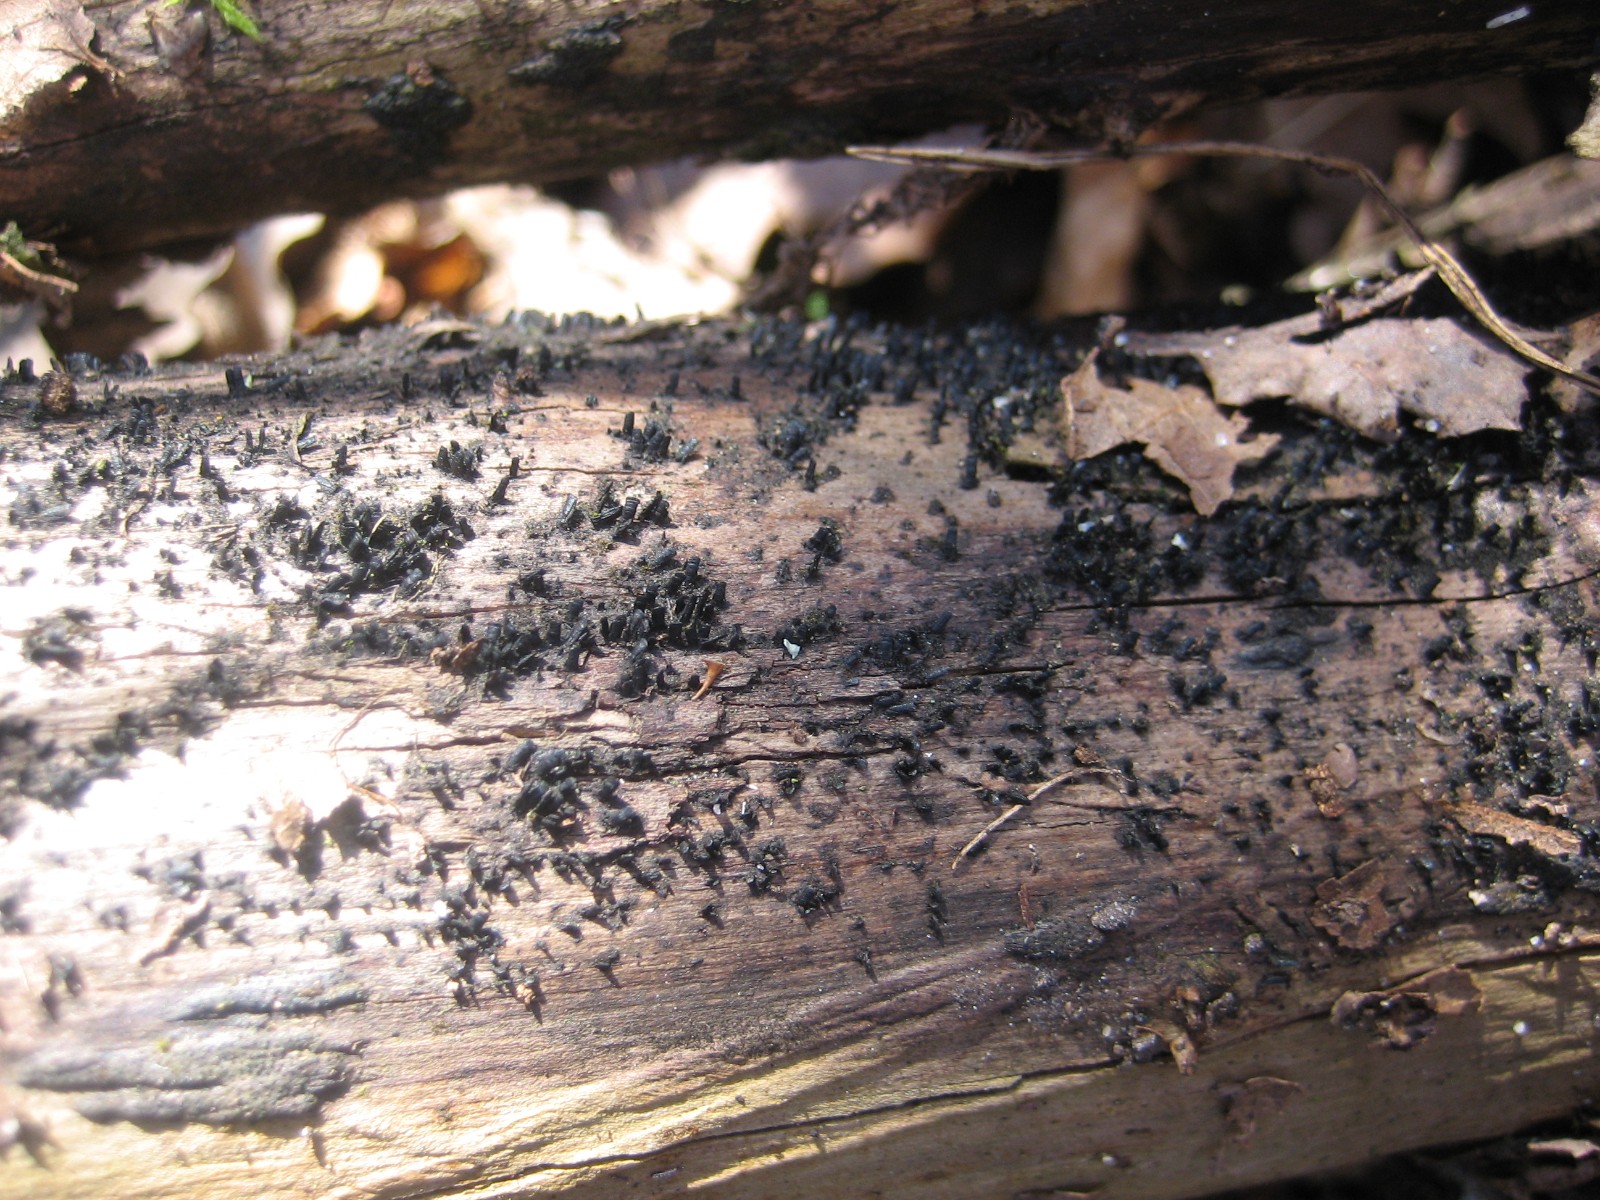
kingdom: Fungi
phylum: Ascomycota
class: Eurotiomycetes
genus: Glyphium
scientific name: Glyphium elatum
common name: kuløkse
